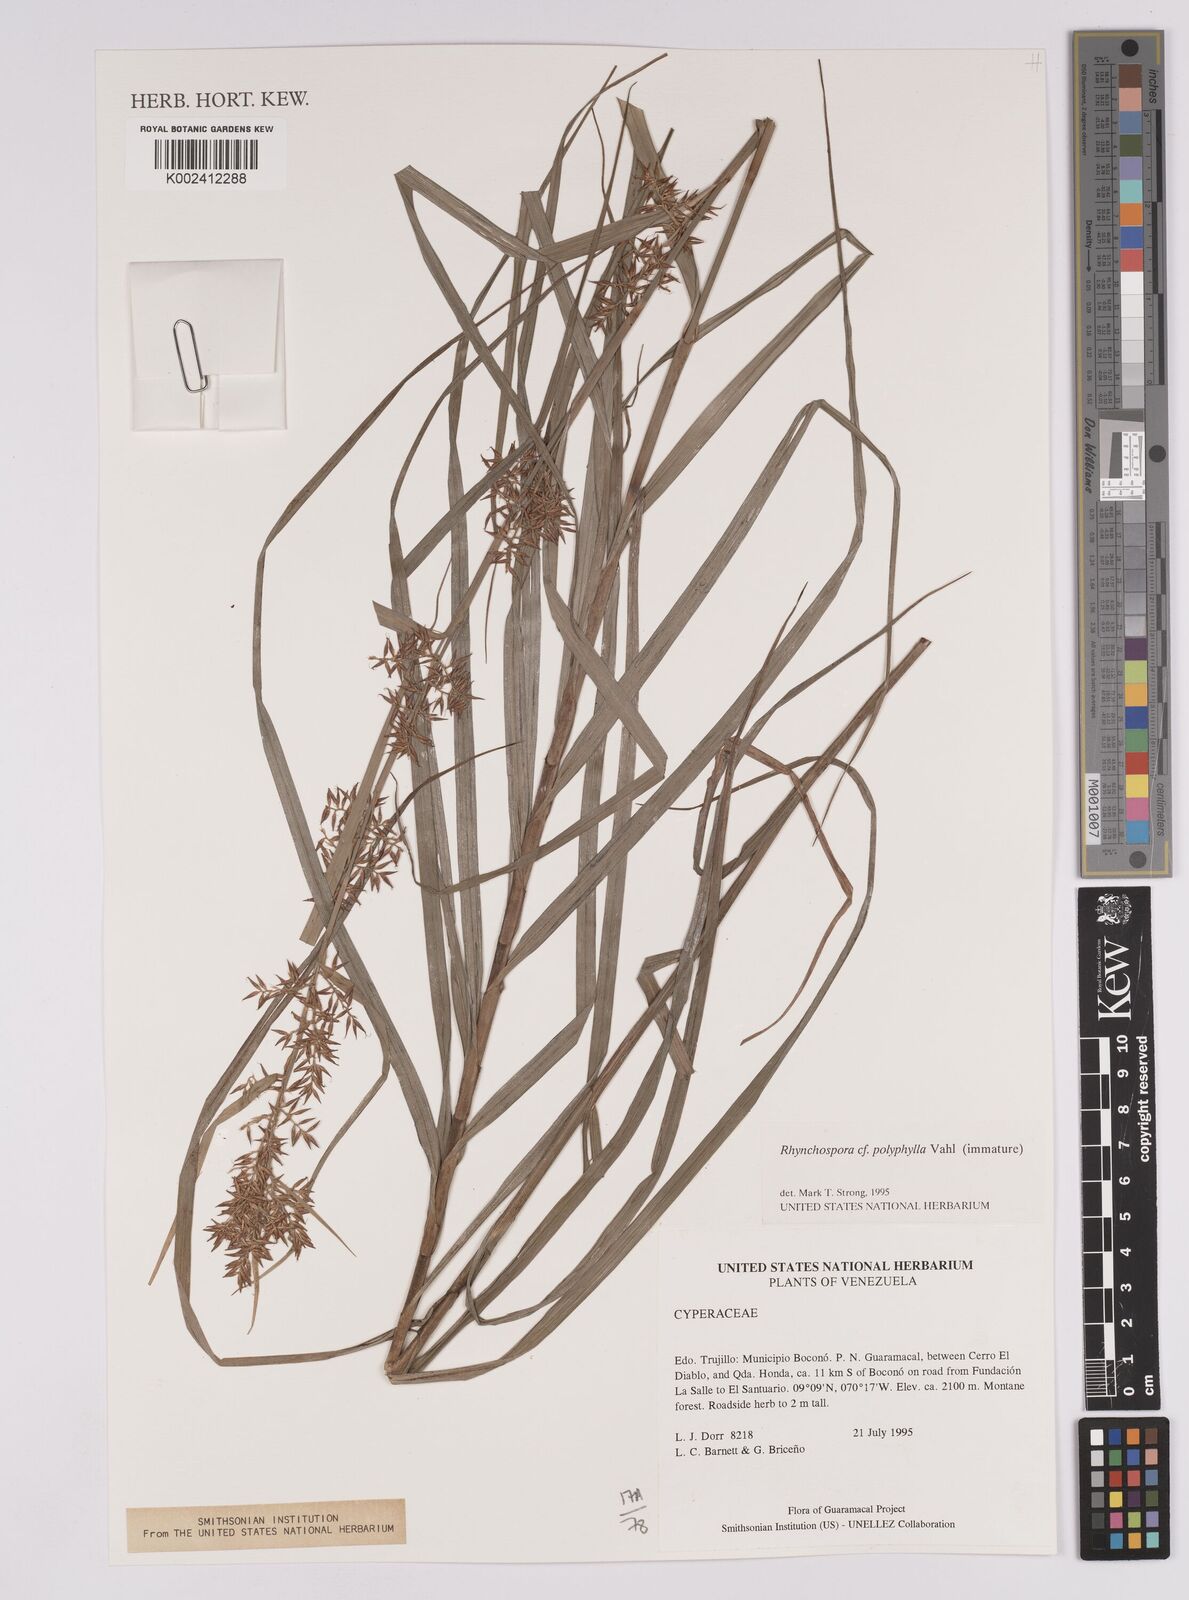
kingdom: Plantae
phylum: Tracheophyta
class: Liliopsida
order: Poales
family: Cyperaceae
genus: Rhynchospora
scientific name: Rhynchospora polyphylla
